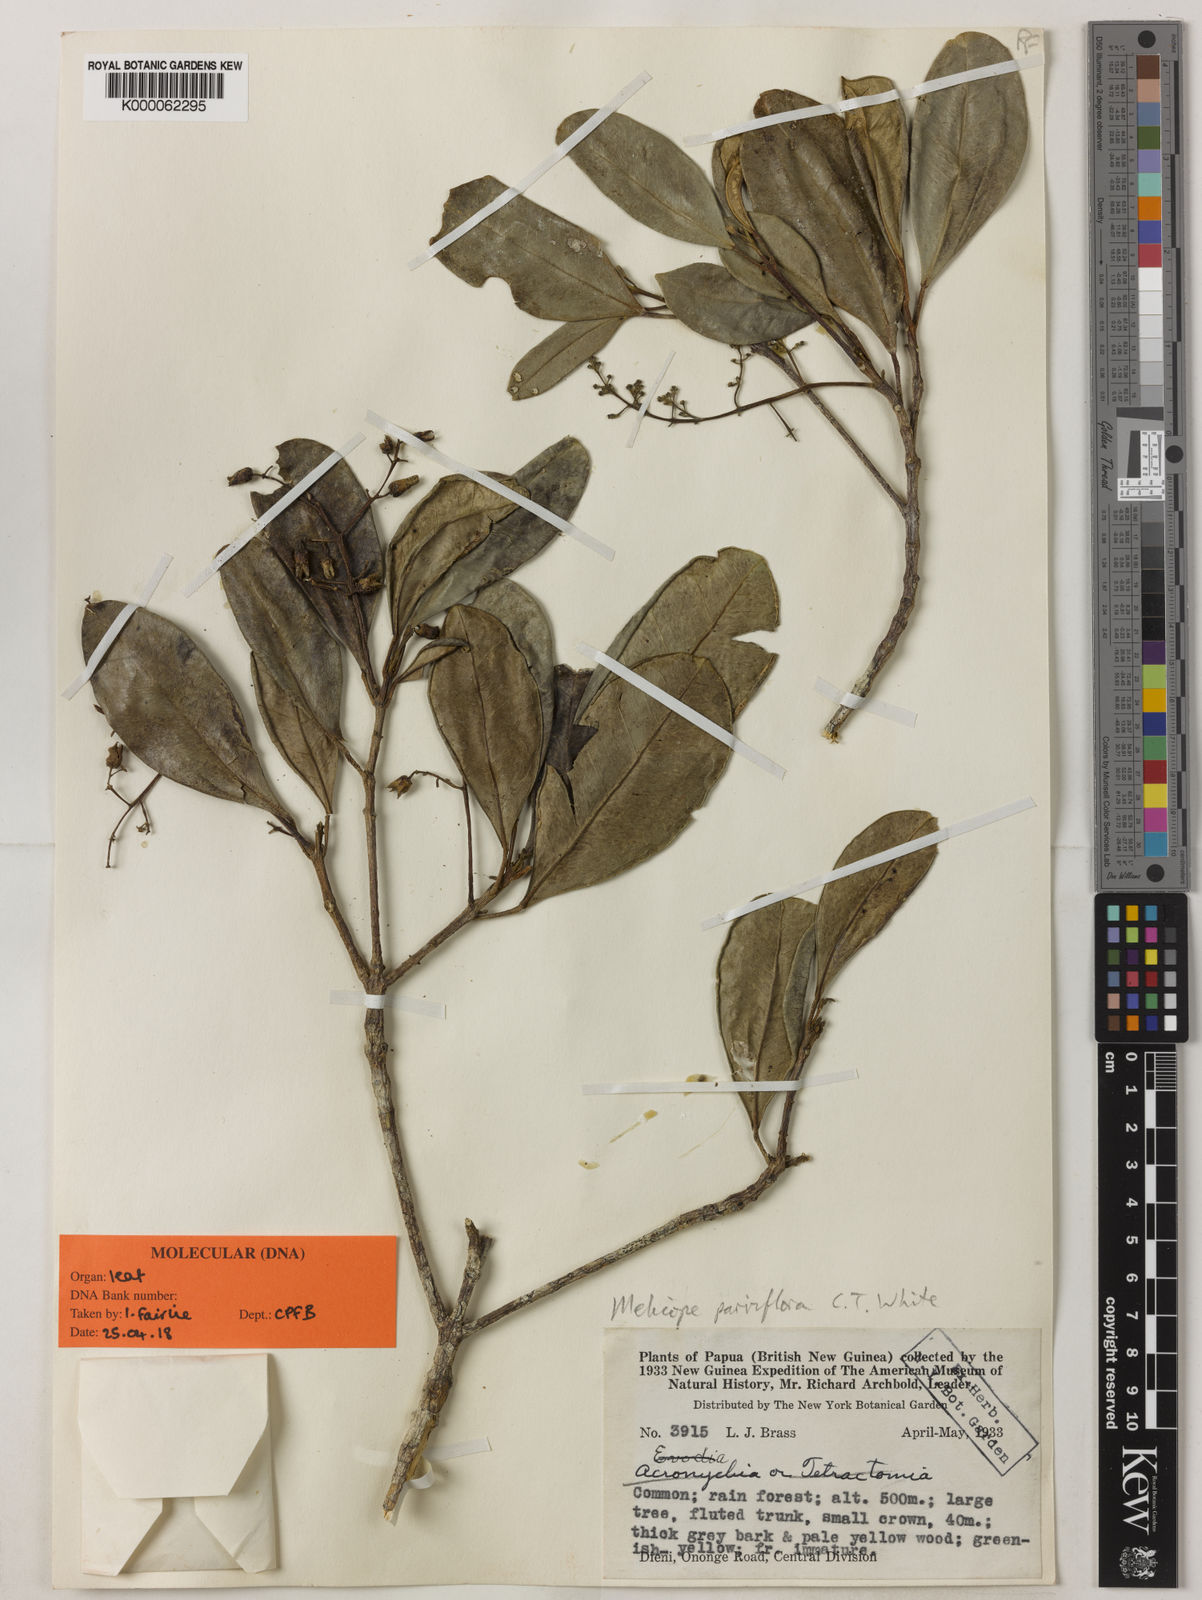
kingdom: Plantae
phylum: Tracheophyta
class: Magnoliopsida
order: Sapindales
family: Rutaceae
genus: Perryodendron
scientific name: Perryodendron parviflorum
